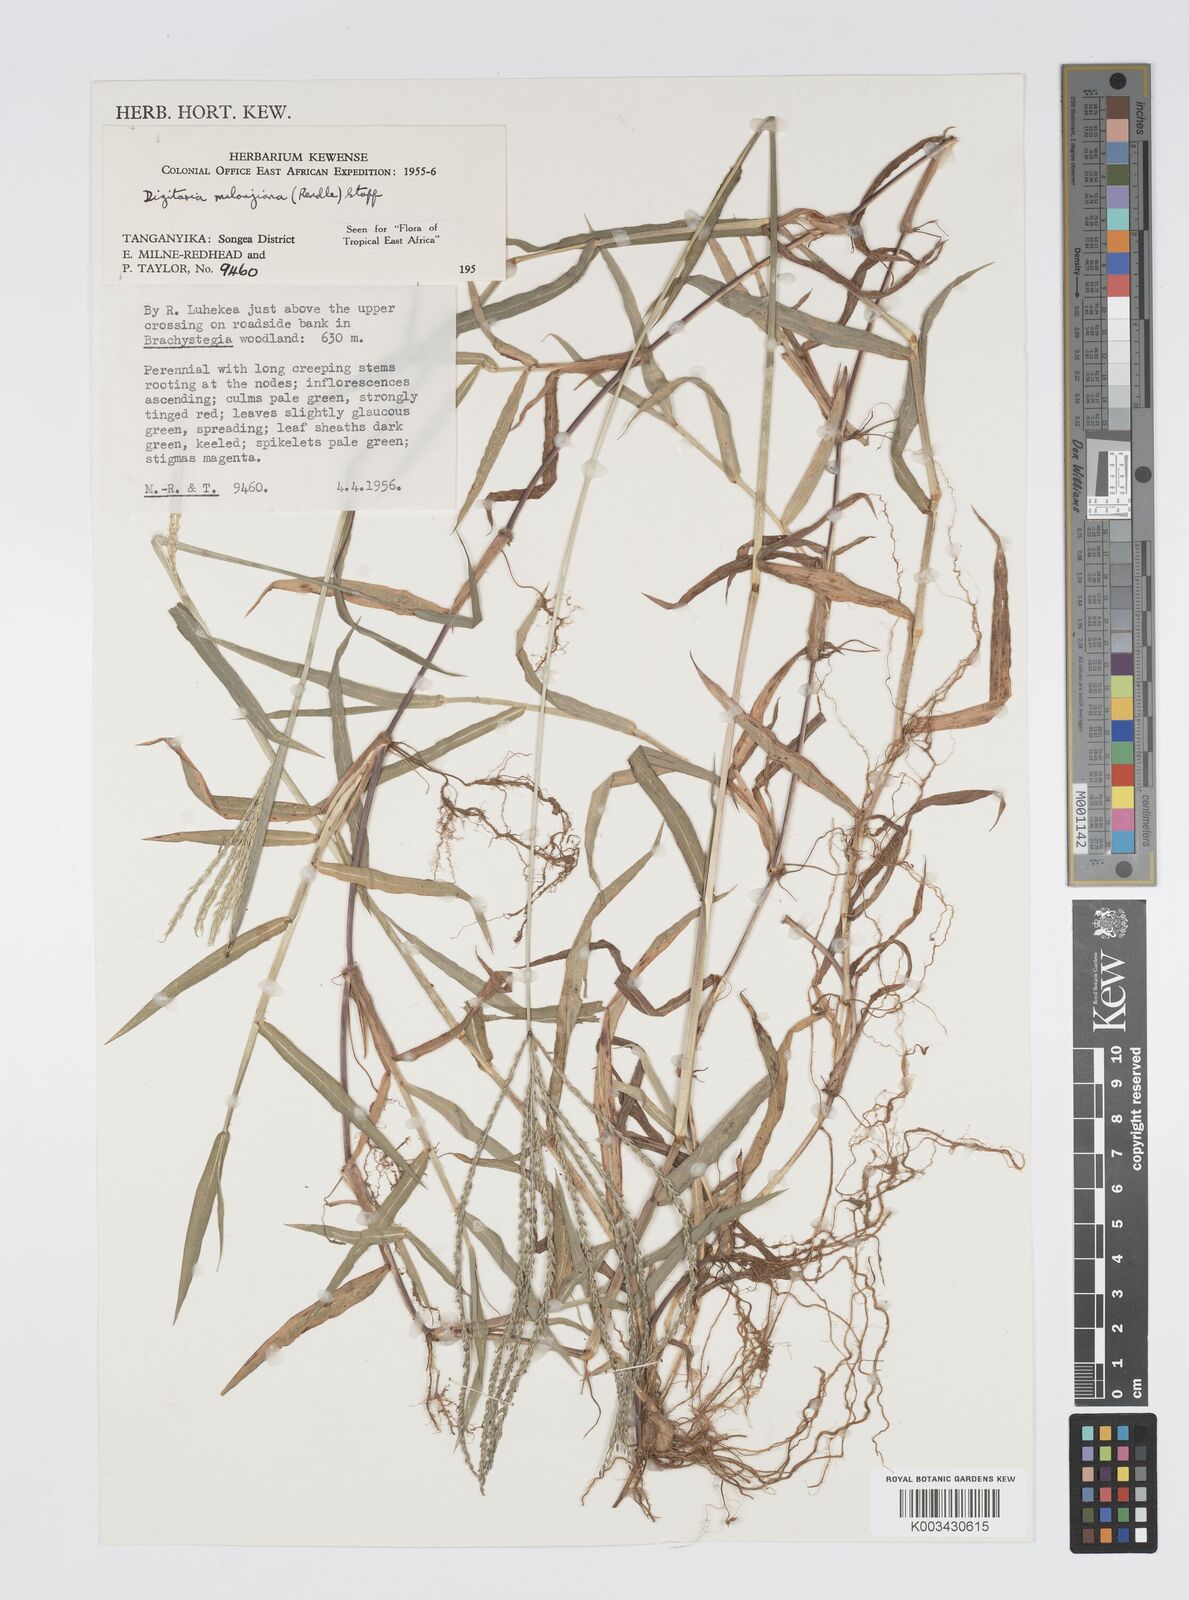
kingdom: Plantae
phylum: Tracheophyta
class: Liliopsida
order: Poales
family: Poaceae
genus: Digitaria
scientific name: Digitaria milanjiana
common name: Madagascar crabgrass
